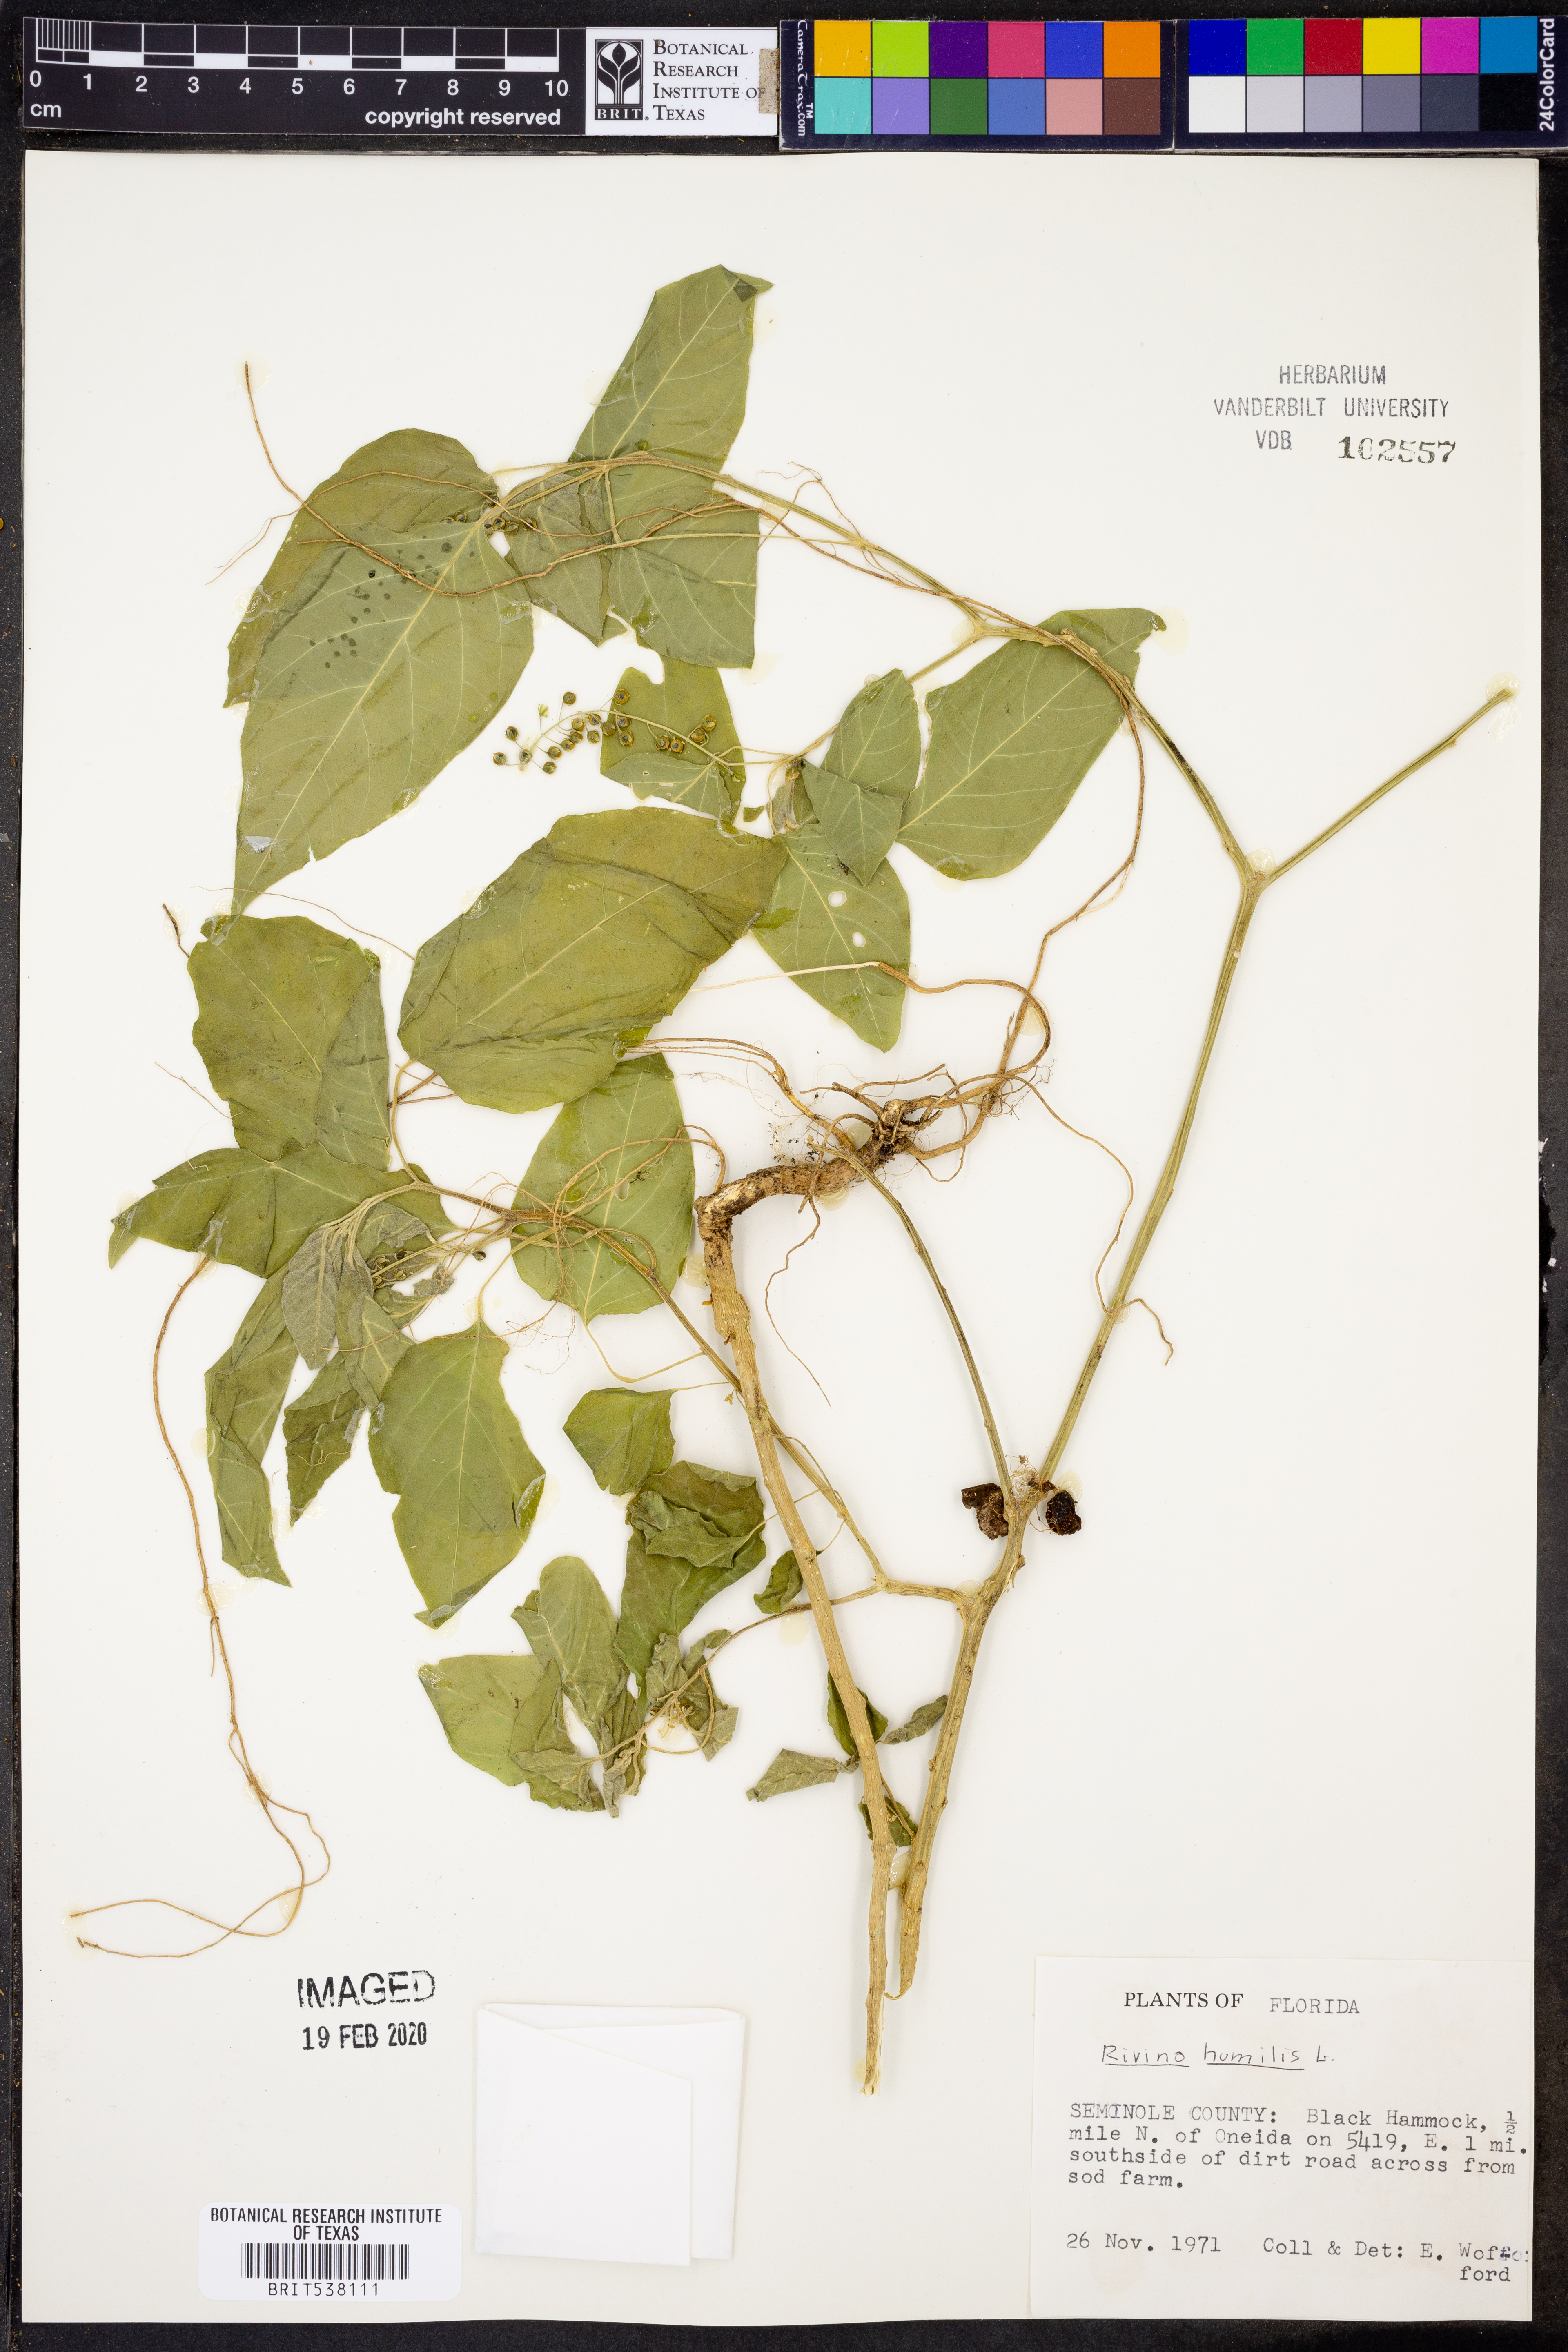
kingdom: Plantae
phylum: Tracheophyta
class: Magnoliopsida
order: Caryophyllales
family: Phytolaccaceae
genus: Rivina
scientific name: Rivina humilis
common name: Rougeplant
